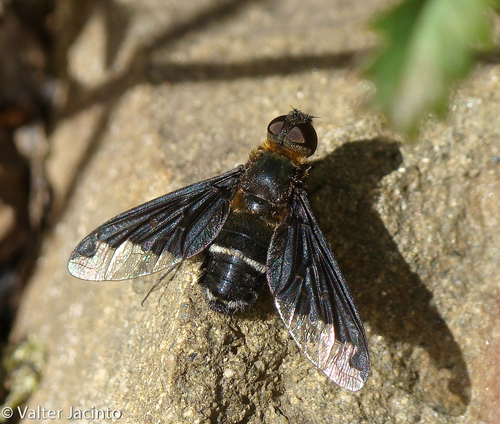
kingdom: Animalia
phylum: Arthropoda
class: Insecta
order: Diptera
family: Bombyliidae
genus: Hemipenthes
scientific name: Hemipenthes velutina
